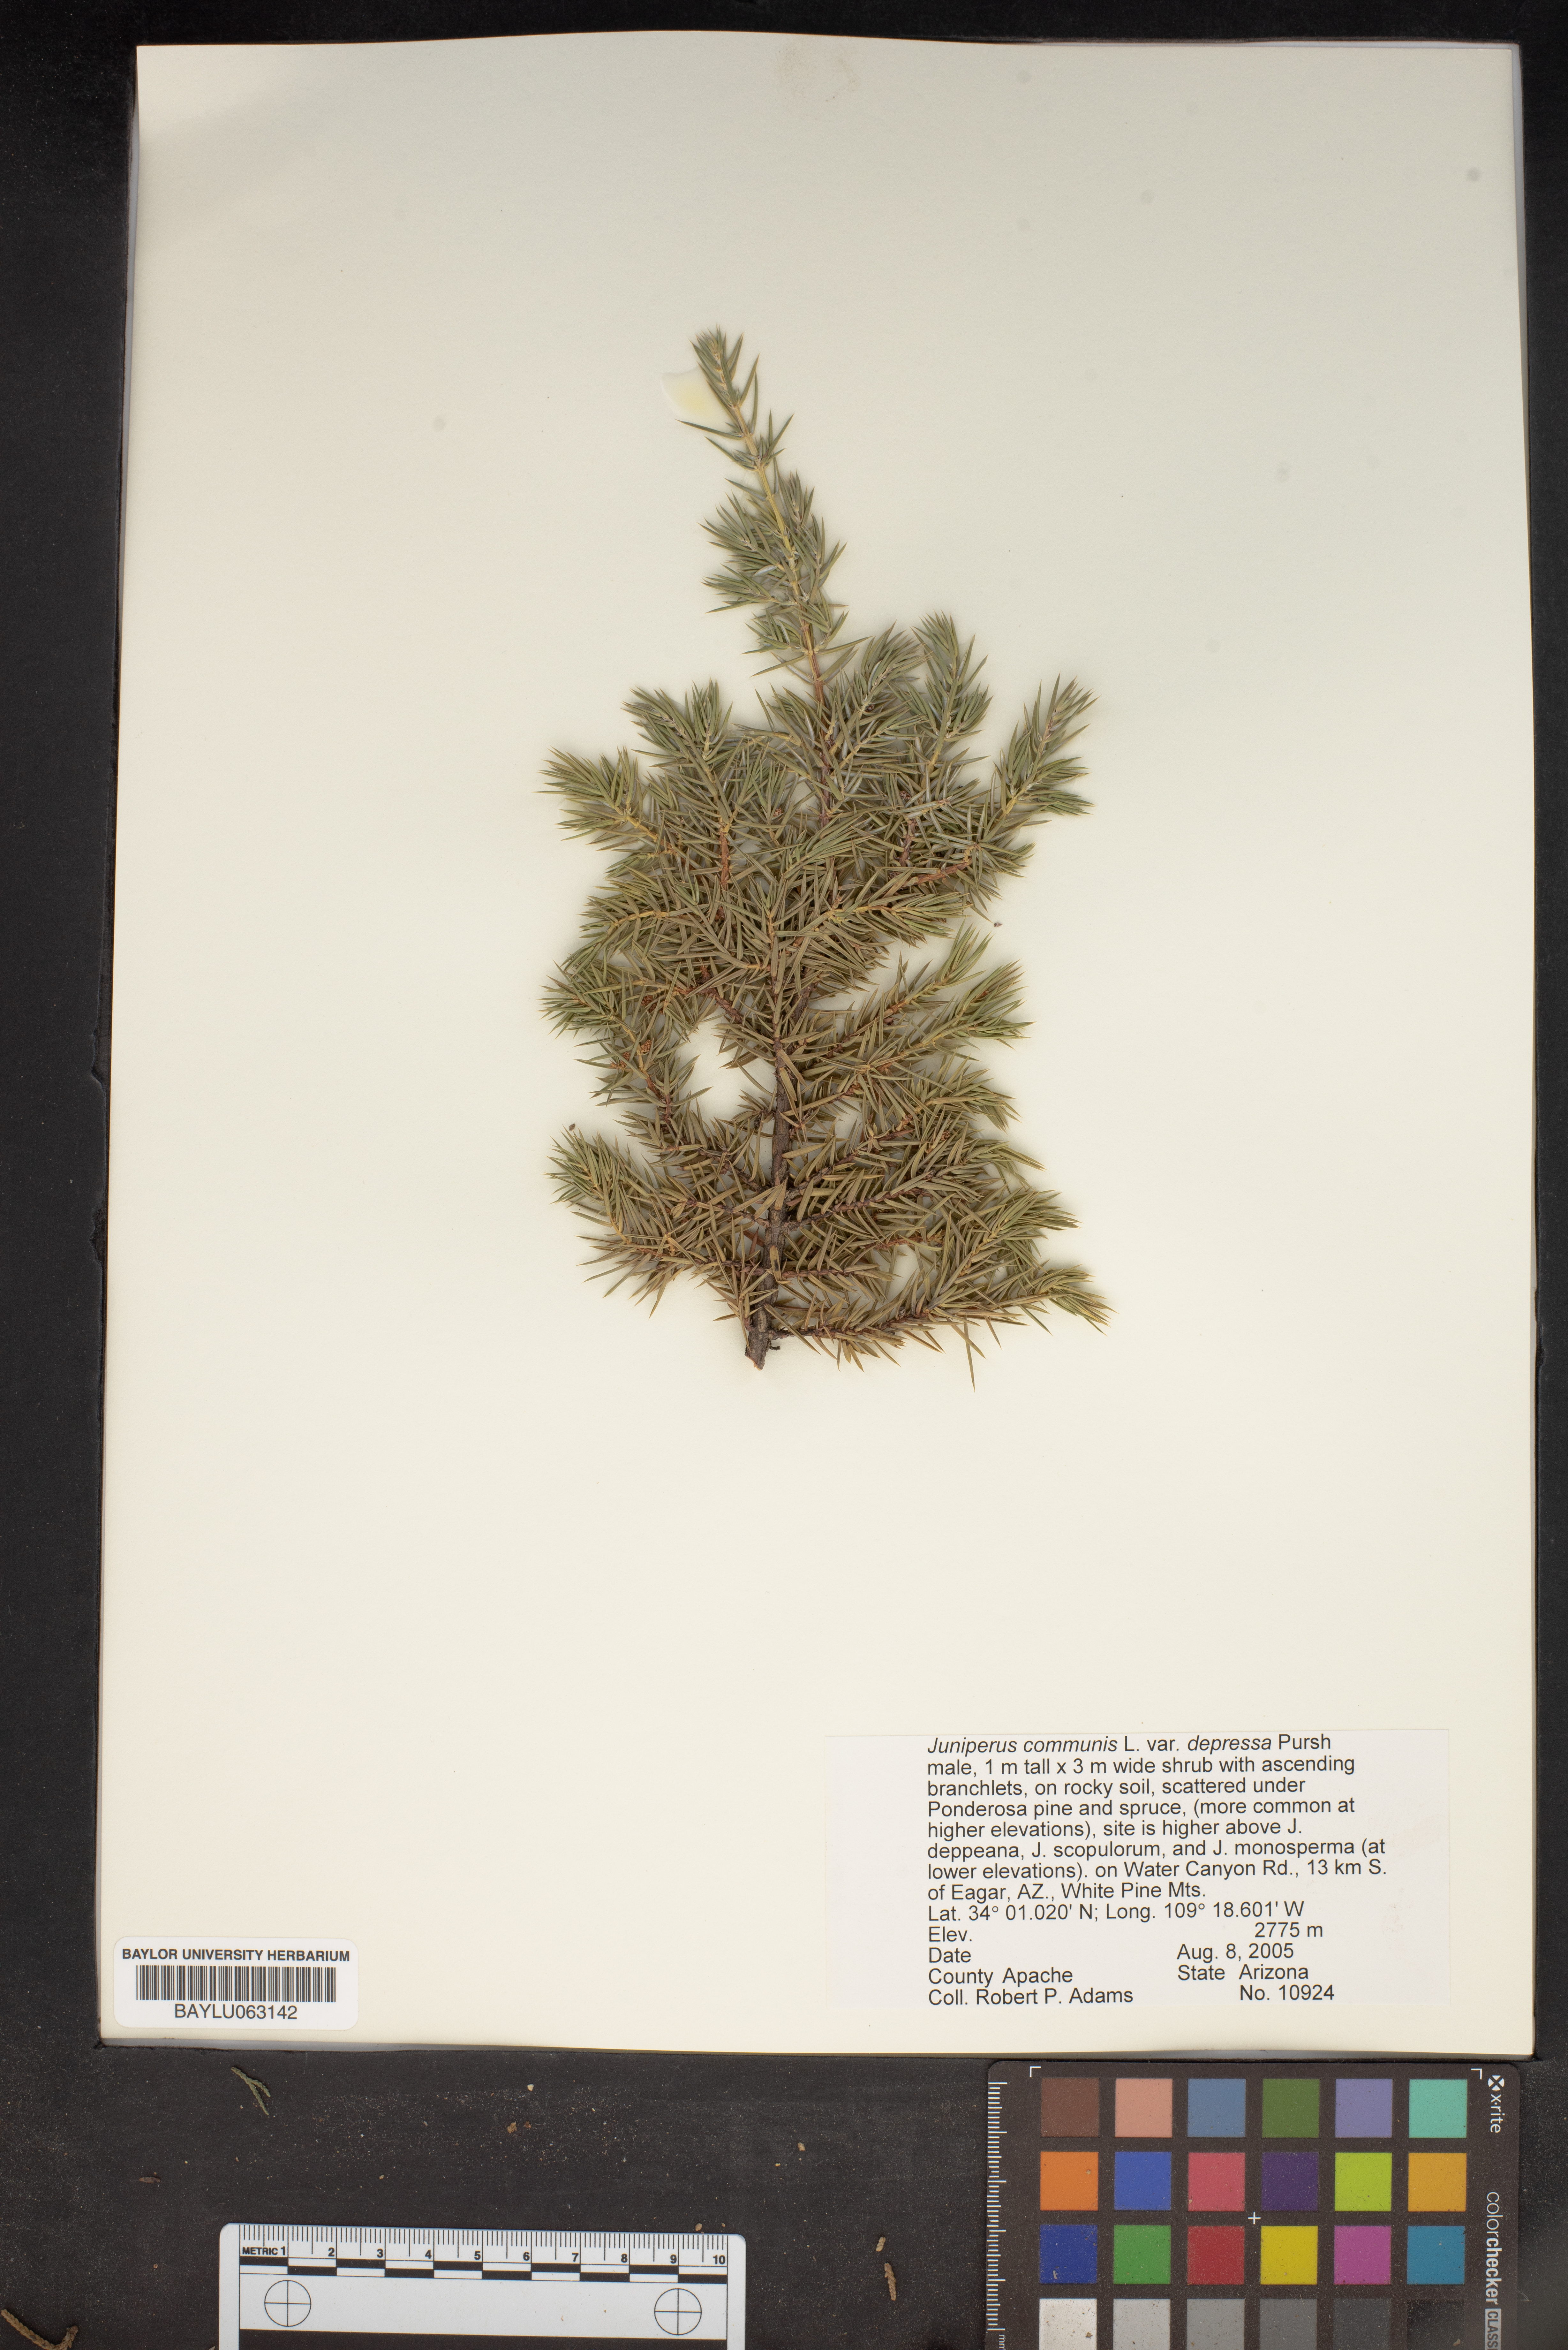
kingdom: Plantae
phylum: Tracheophyta
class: Pinopsida
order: Pinales
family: Cupressaceae
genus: Juniperus
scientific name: Juniperus communis
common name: Common juniper
